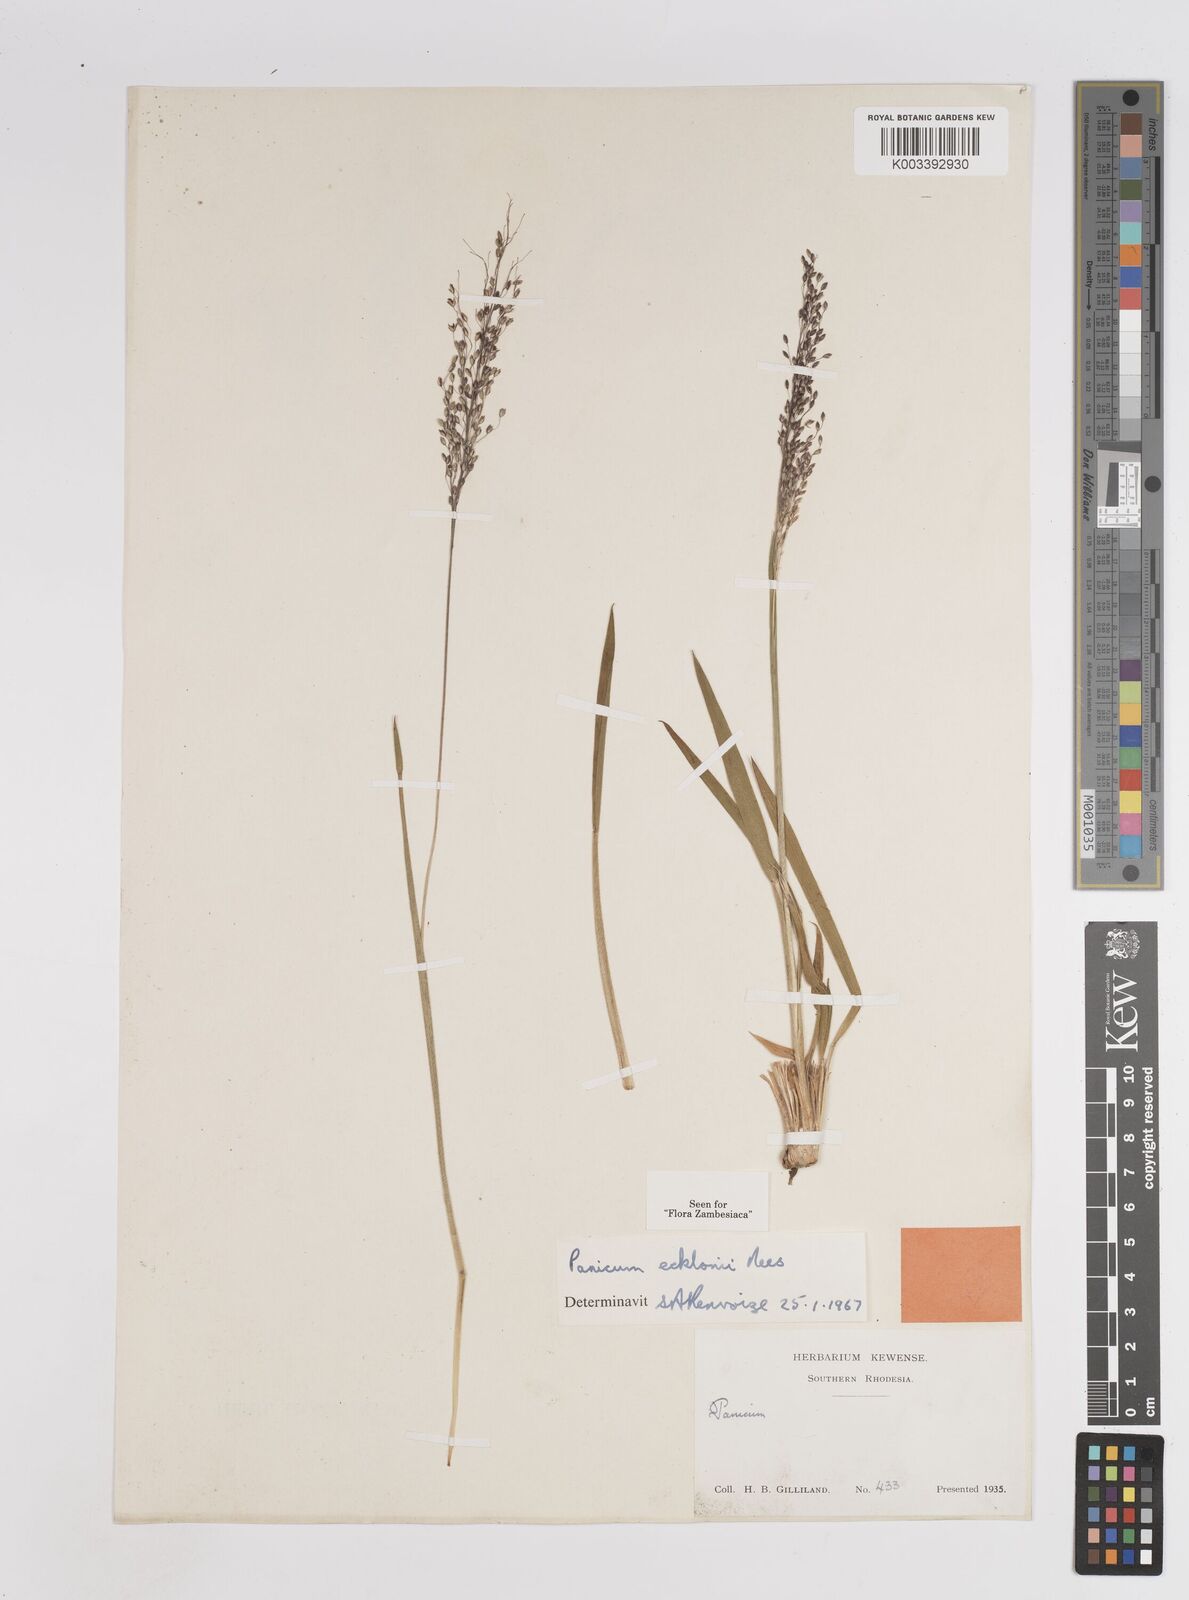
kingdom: Plantae
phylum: Tracheophyta
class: Liliopsida
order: Poales
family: Poaceae
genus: Adenochloa
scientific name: Adenochloa ecklonii
